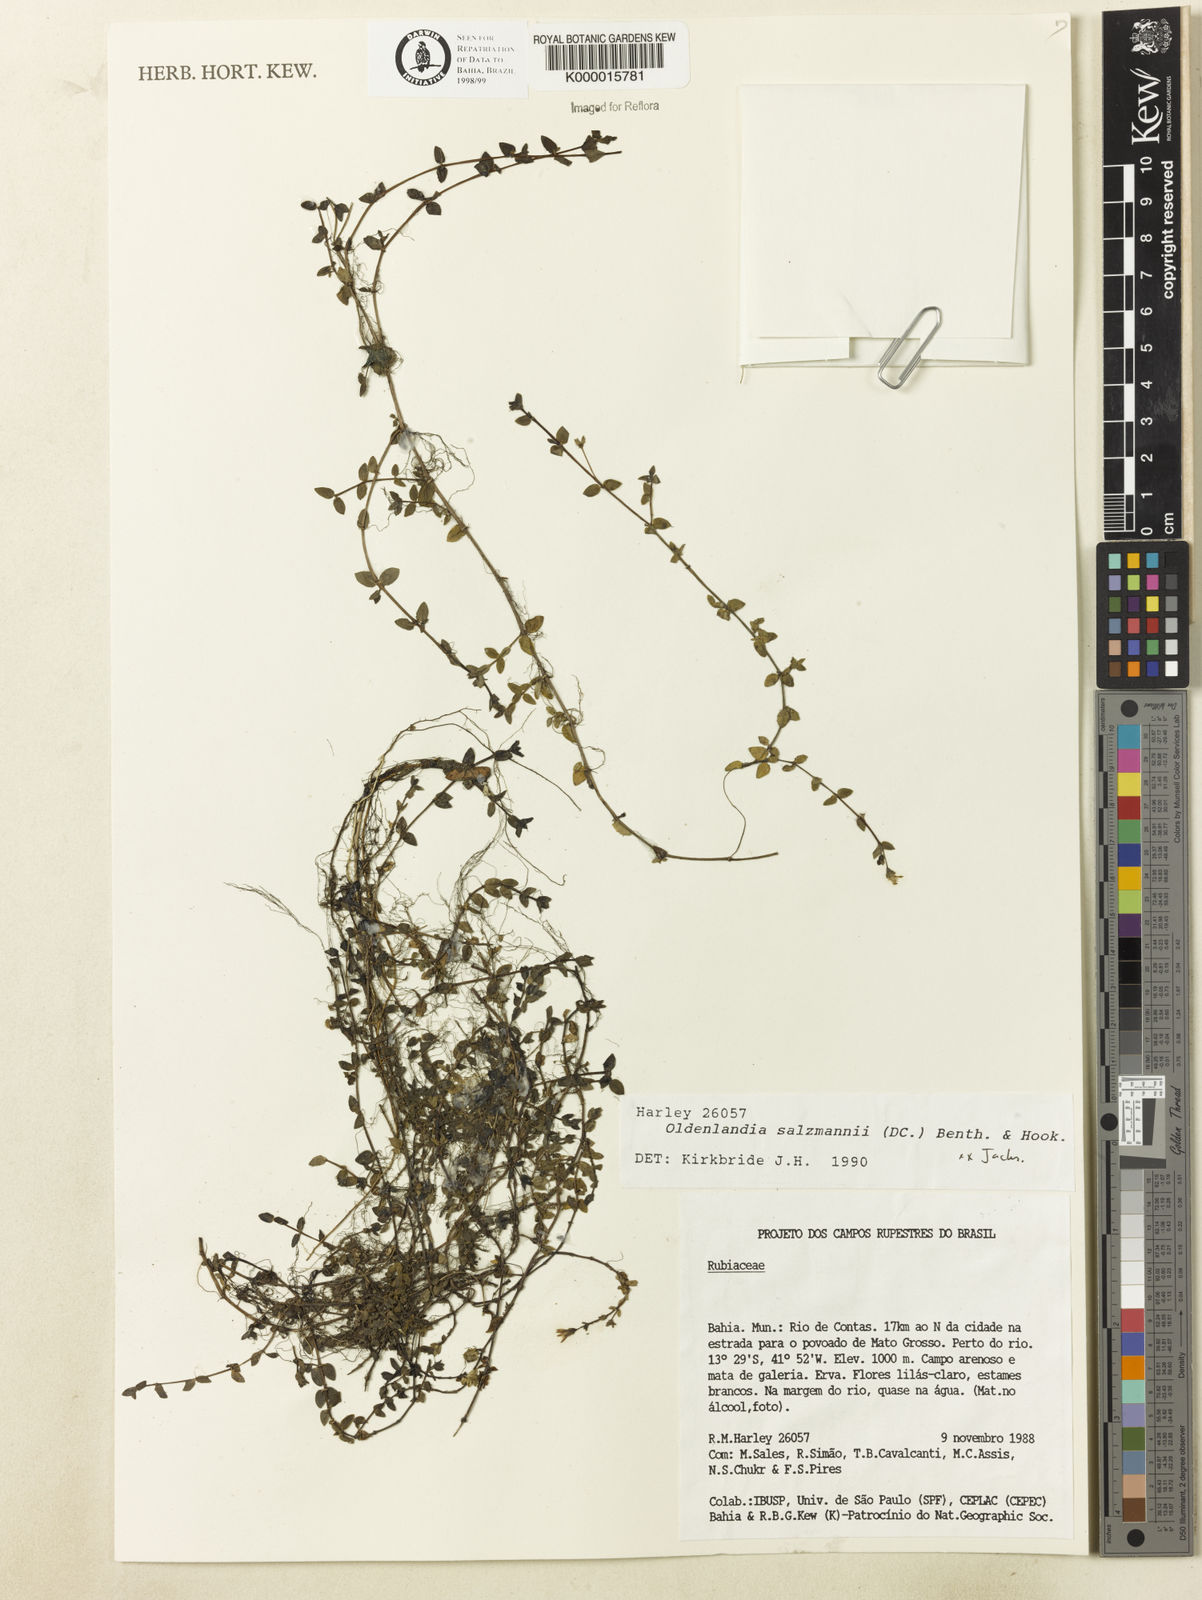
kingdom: Plantae
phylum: Tracheophyta
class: Magnoliopsida
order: Gentianales
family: Rubiaceae
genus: Oldenlandia
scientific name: Oldenlandia salzmannii
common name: Salzmann's mille graines
